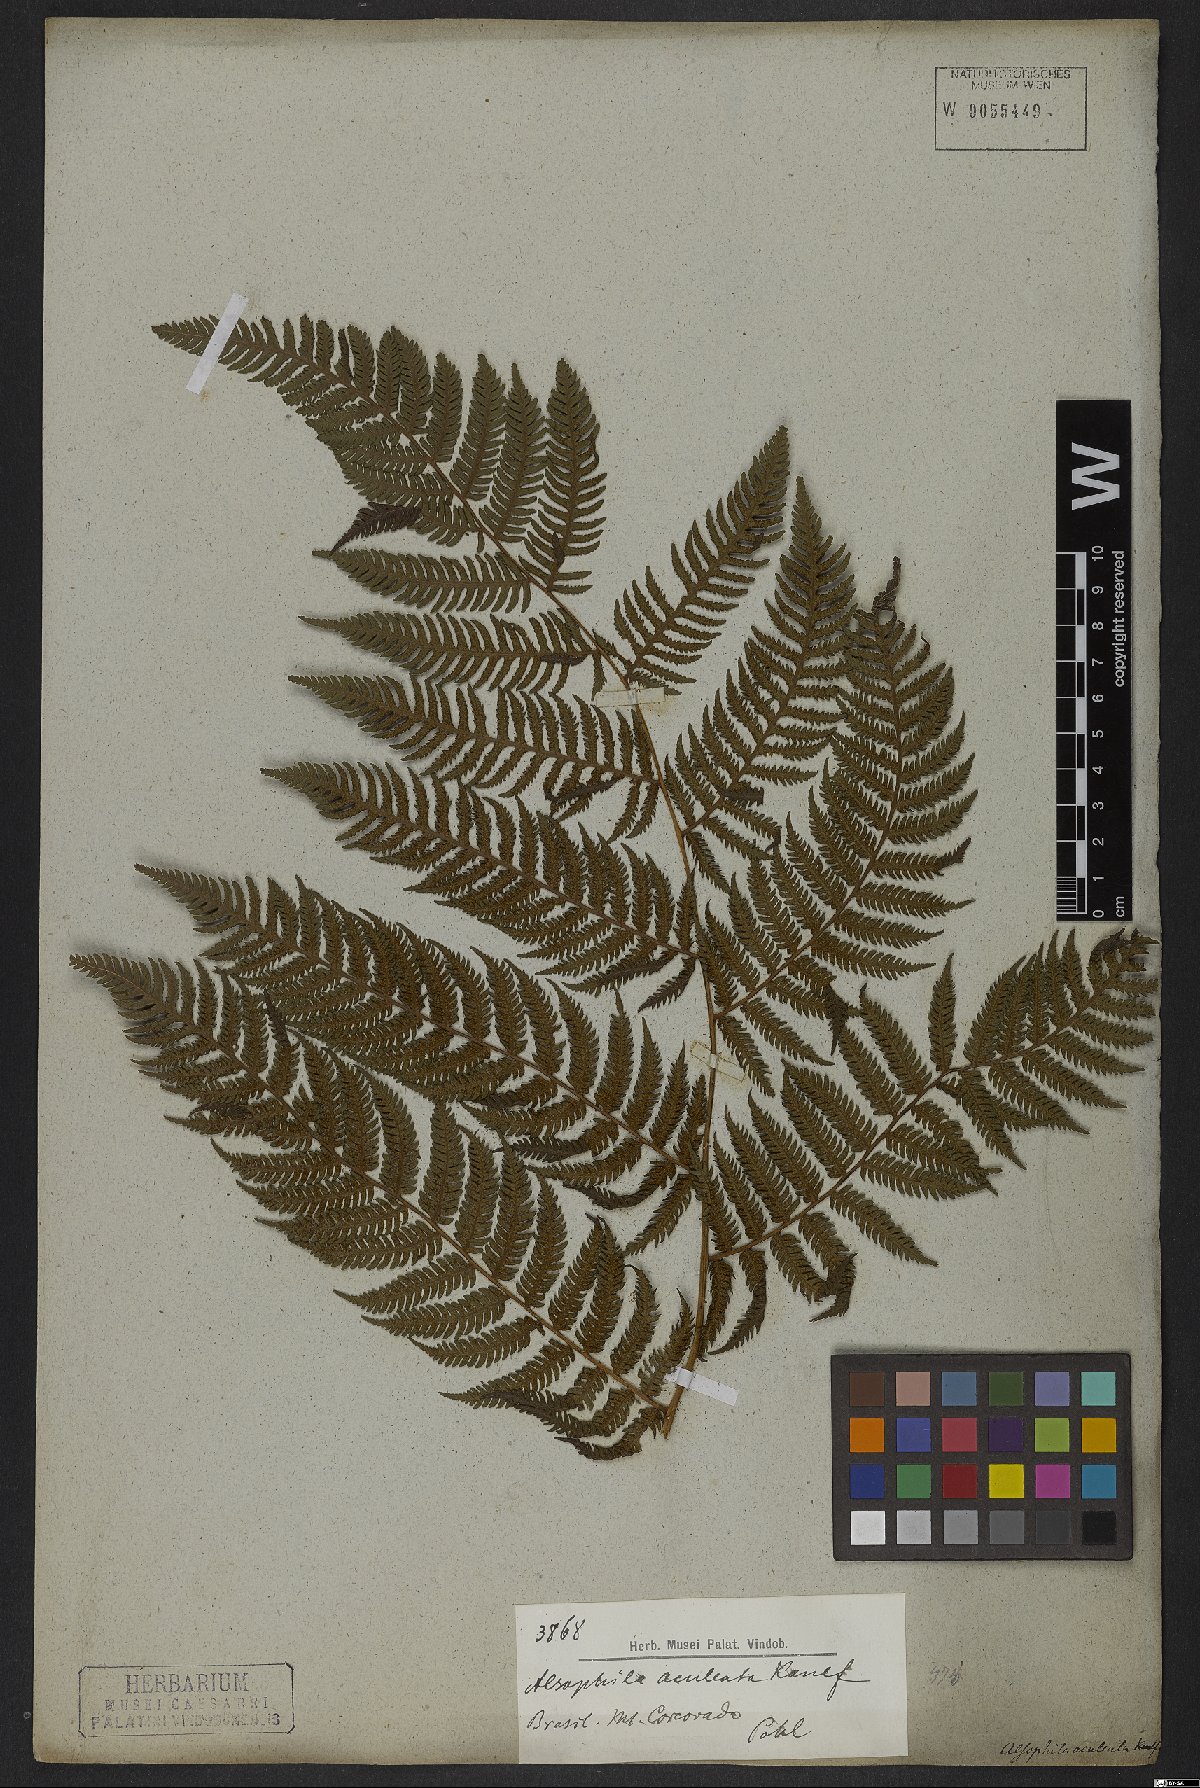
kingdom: Plantae
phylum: Tracheophyta
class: Polypodiopsida
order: Cyatheales
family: Cyatheaceae
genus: Cyathea
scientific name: Cyathea microdonta
